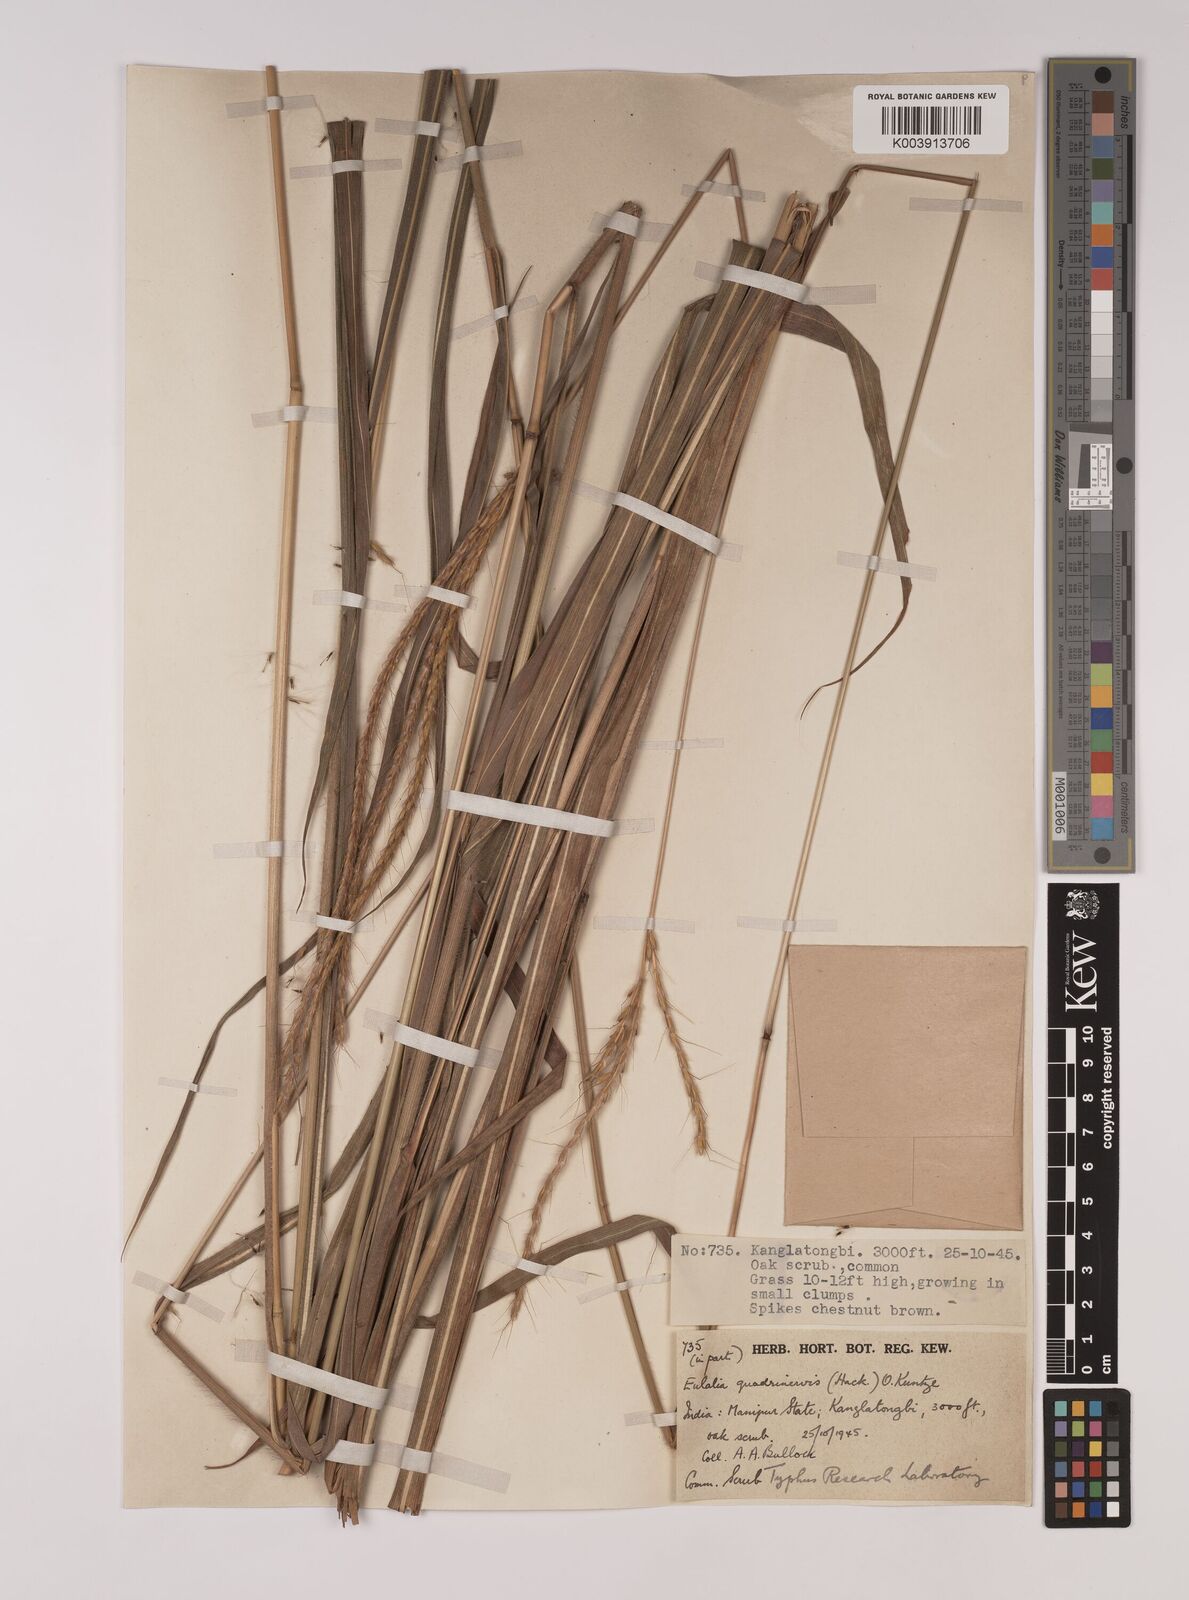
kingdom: Plantae
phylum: Tracheophyta
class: Liliopsida
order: Poales
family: Poaceae
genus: Pseudopogonatherum
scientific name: Pseudopogonatherum quadrinerve
